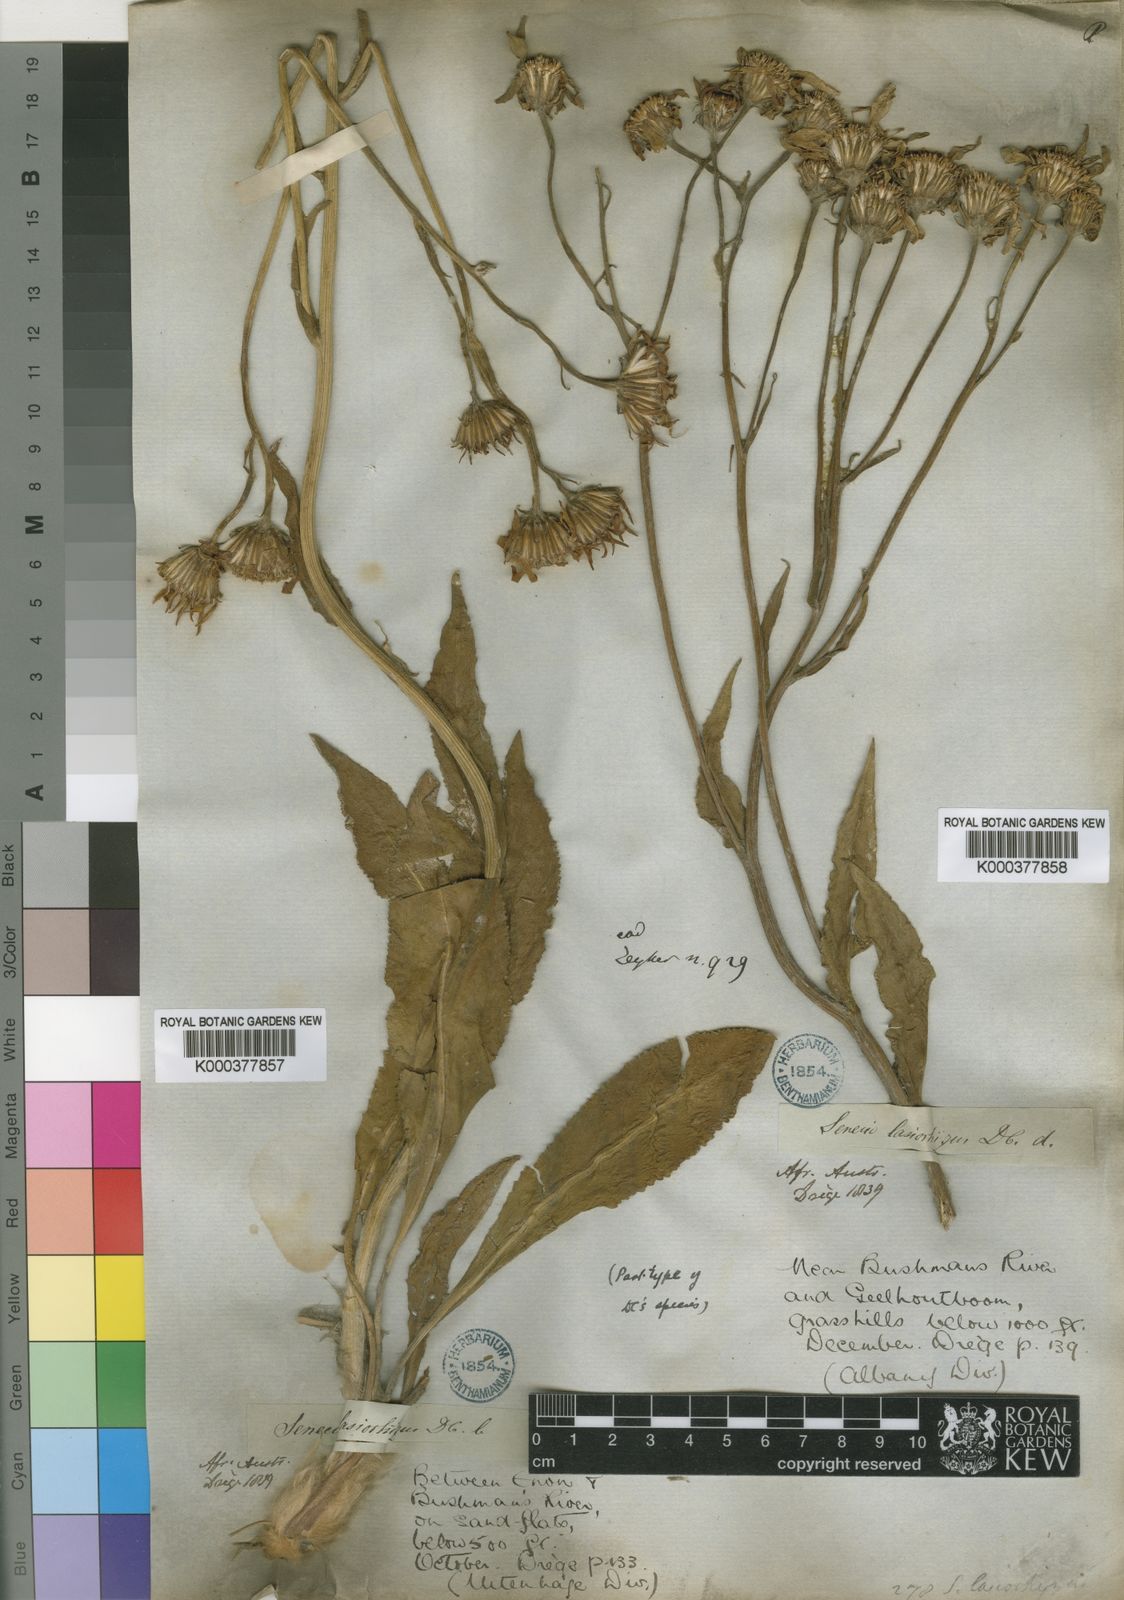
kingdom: Plantae
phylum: Tracheophyta
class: Magnoliopsida
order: Asterales
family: Asteraceae
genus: Senecio
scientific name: Senecio coronatus
